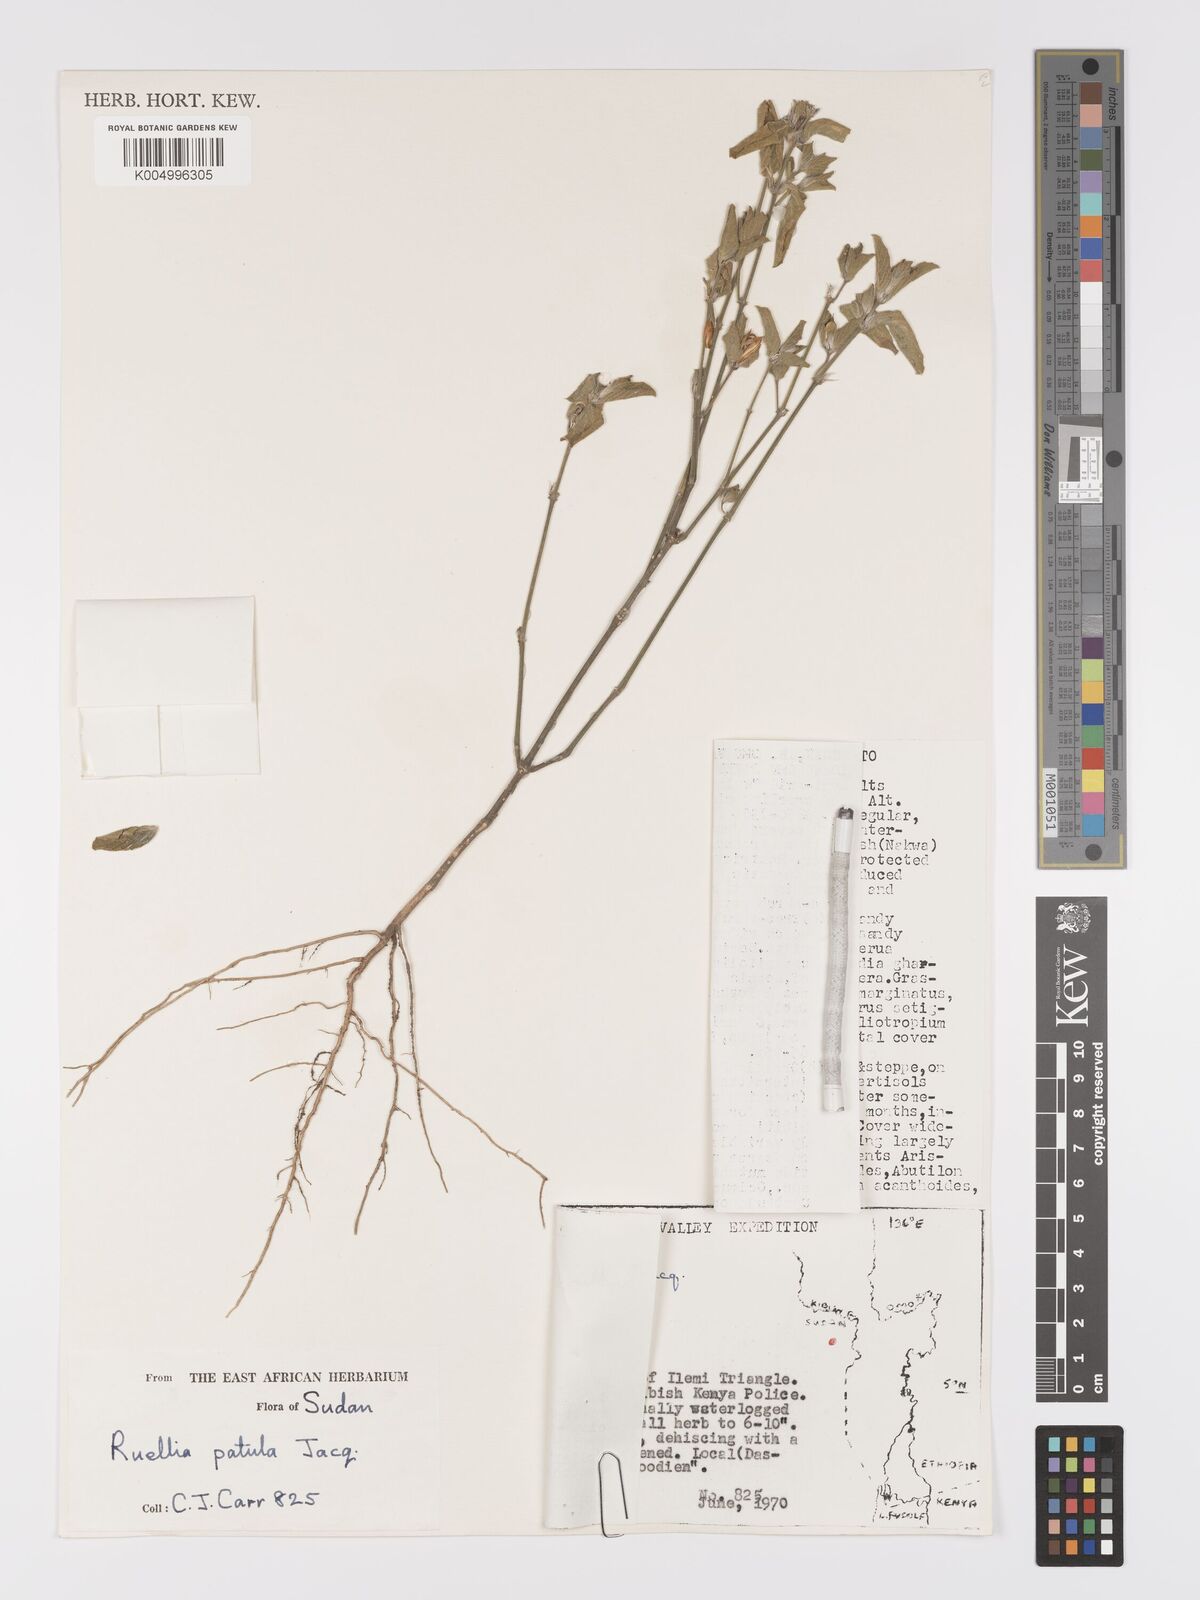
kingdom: Plantae
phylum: Tracheophyta
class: Magnoliopsida
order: Lamiales
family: Acanthaceae
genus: Ruellia
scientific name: Ruellia patula
